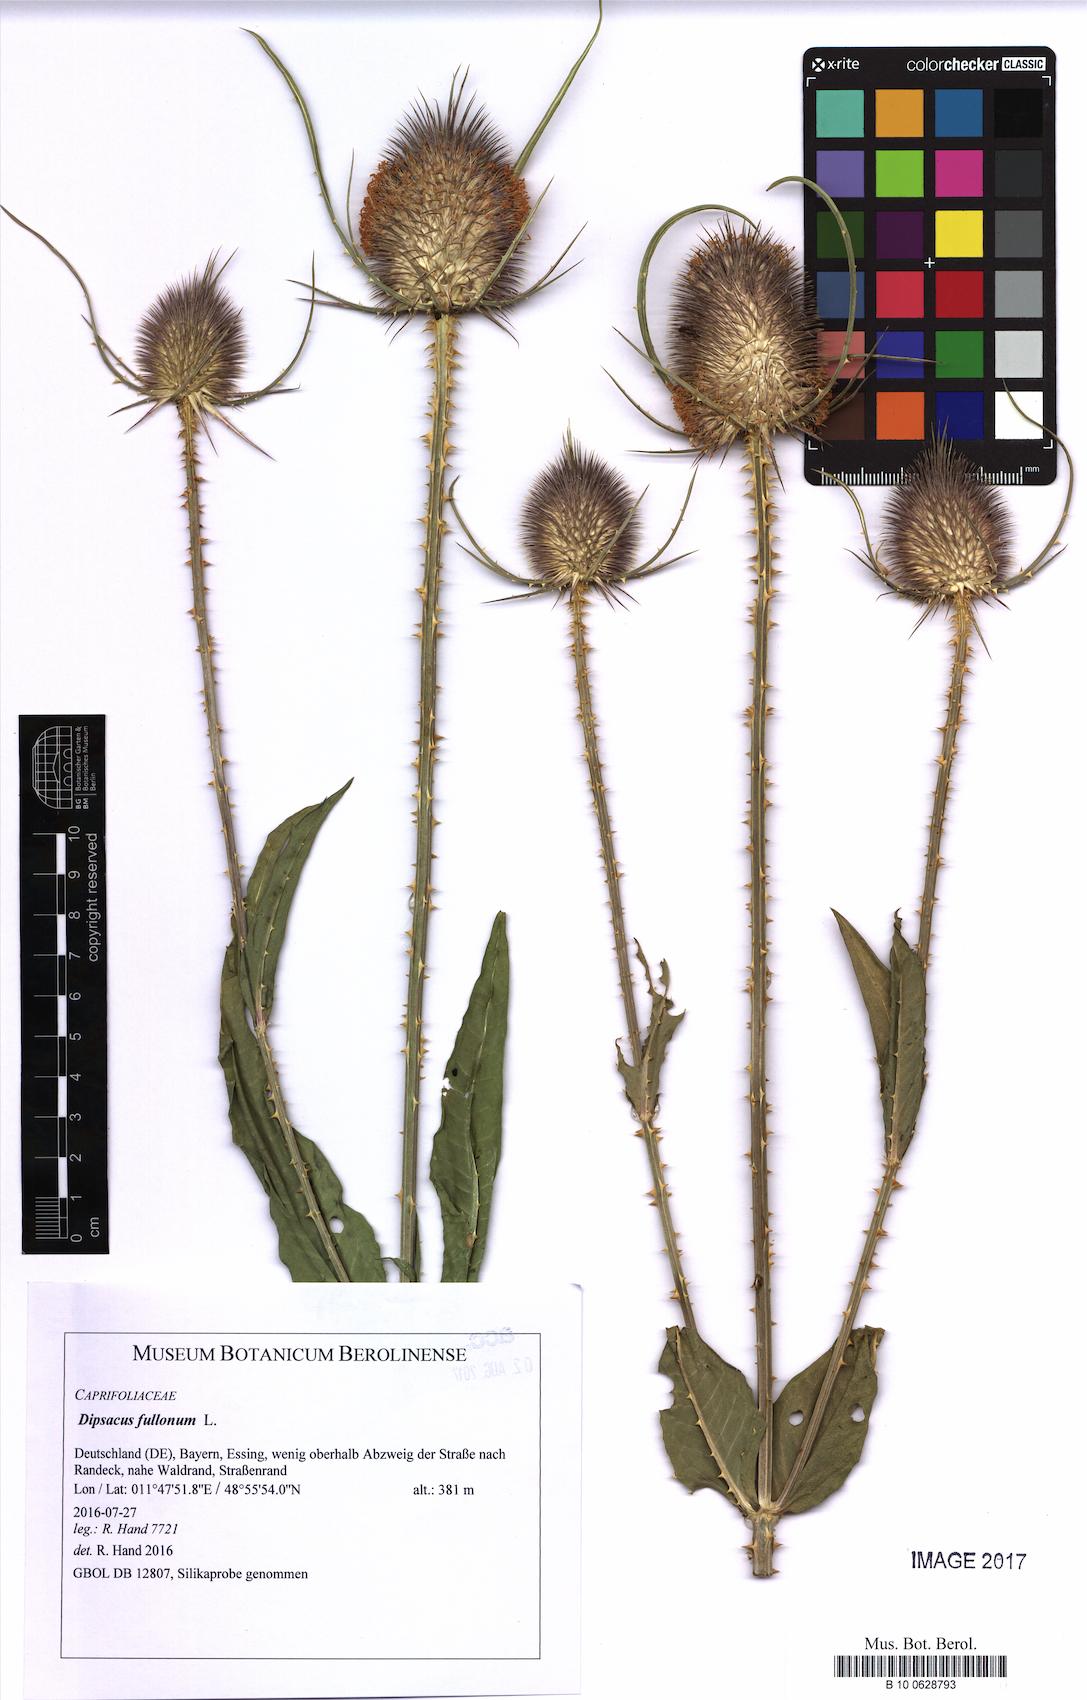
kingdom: Plantae
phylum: Tracheophyta
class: Magnoliopsida
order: Dipsacales
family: Caprifoliaceae
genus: Dipsacus
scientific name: Dipsacus fullonum
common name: Teasel
